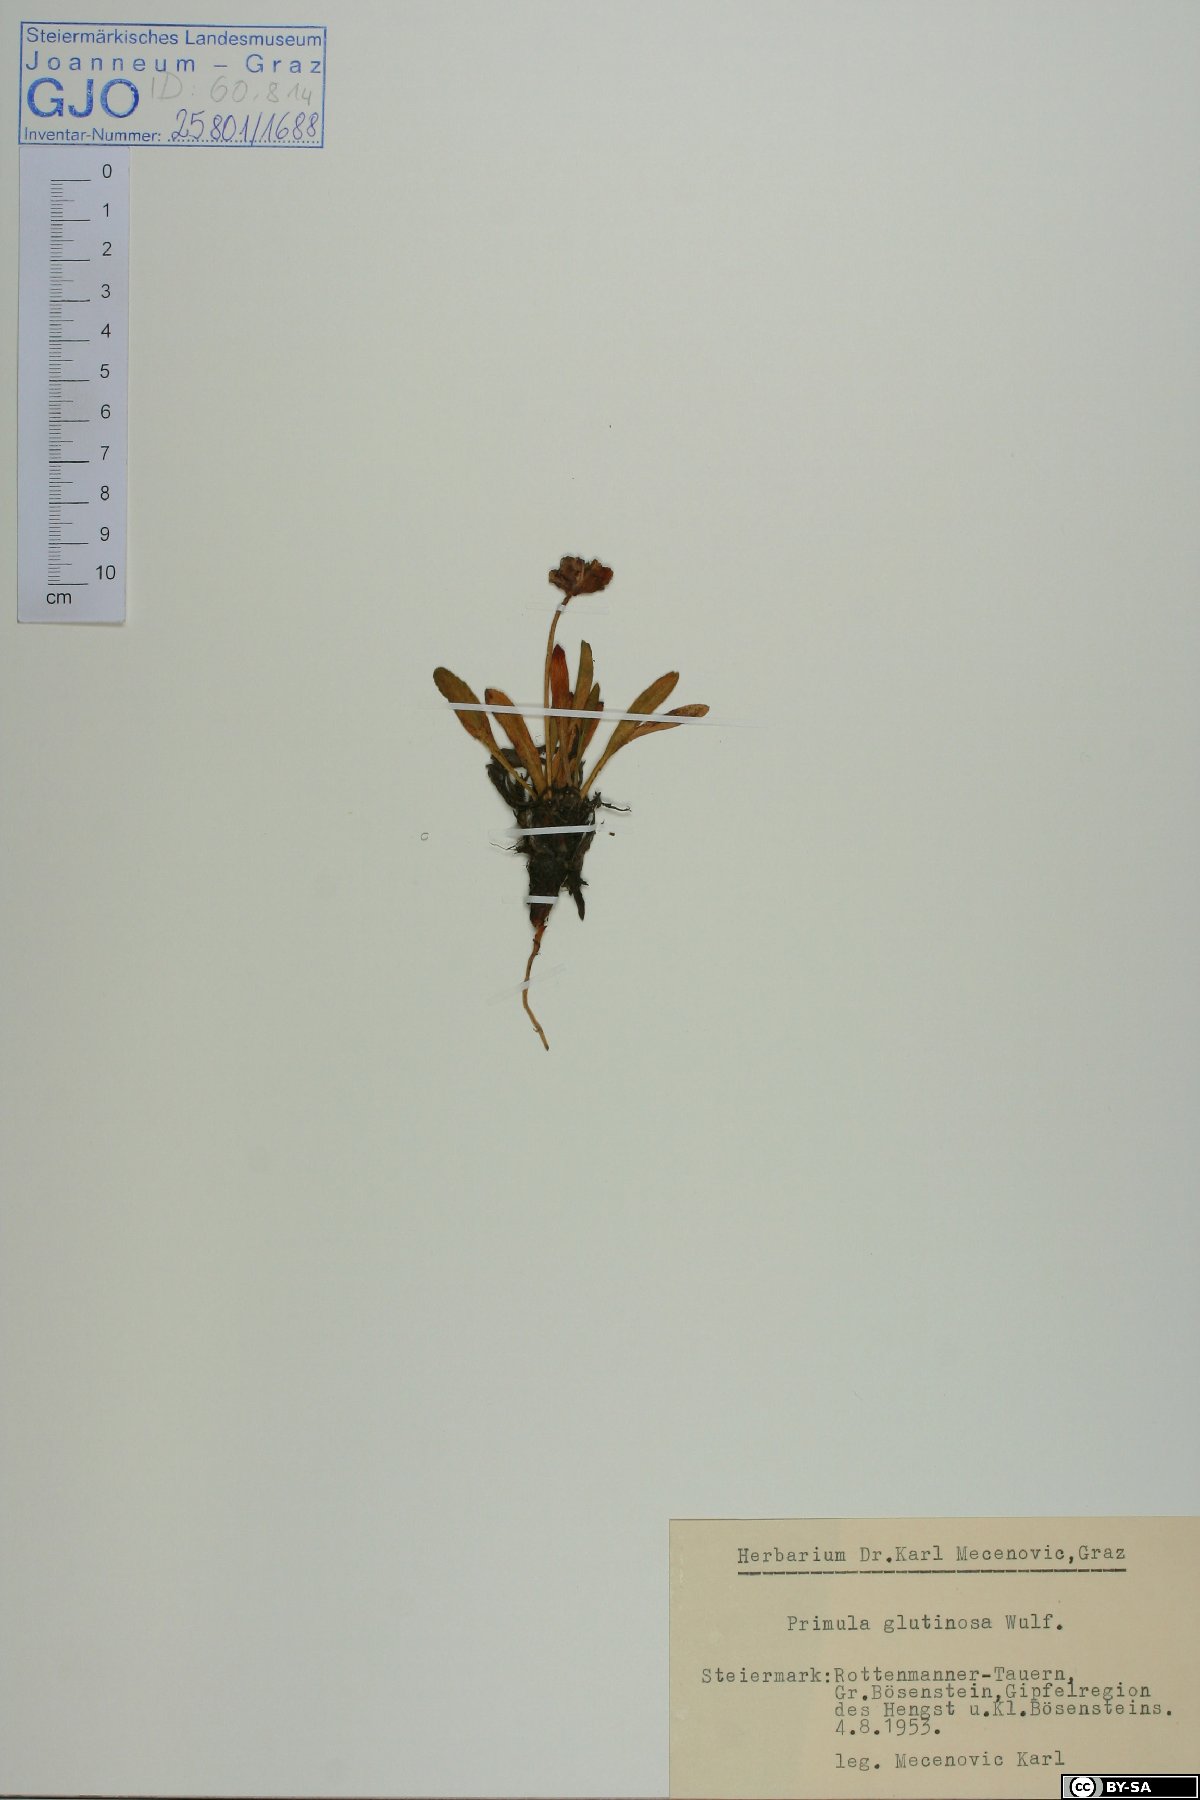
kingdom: Plantae
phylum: Tracheophyta
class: Magnoliopsida
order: Ericales
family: Primulaceae
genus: Primula
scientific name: Primula glutinosa
